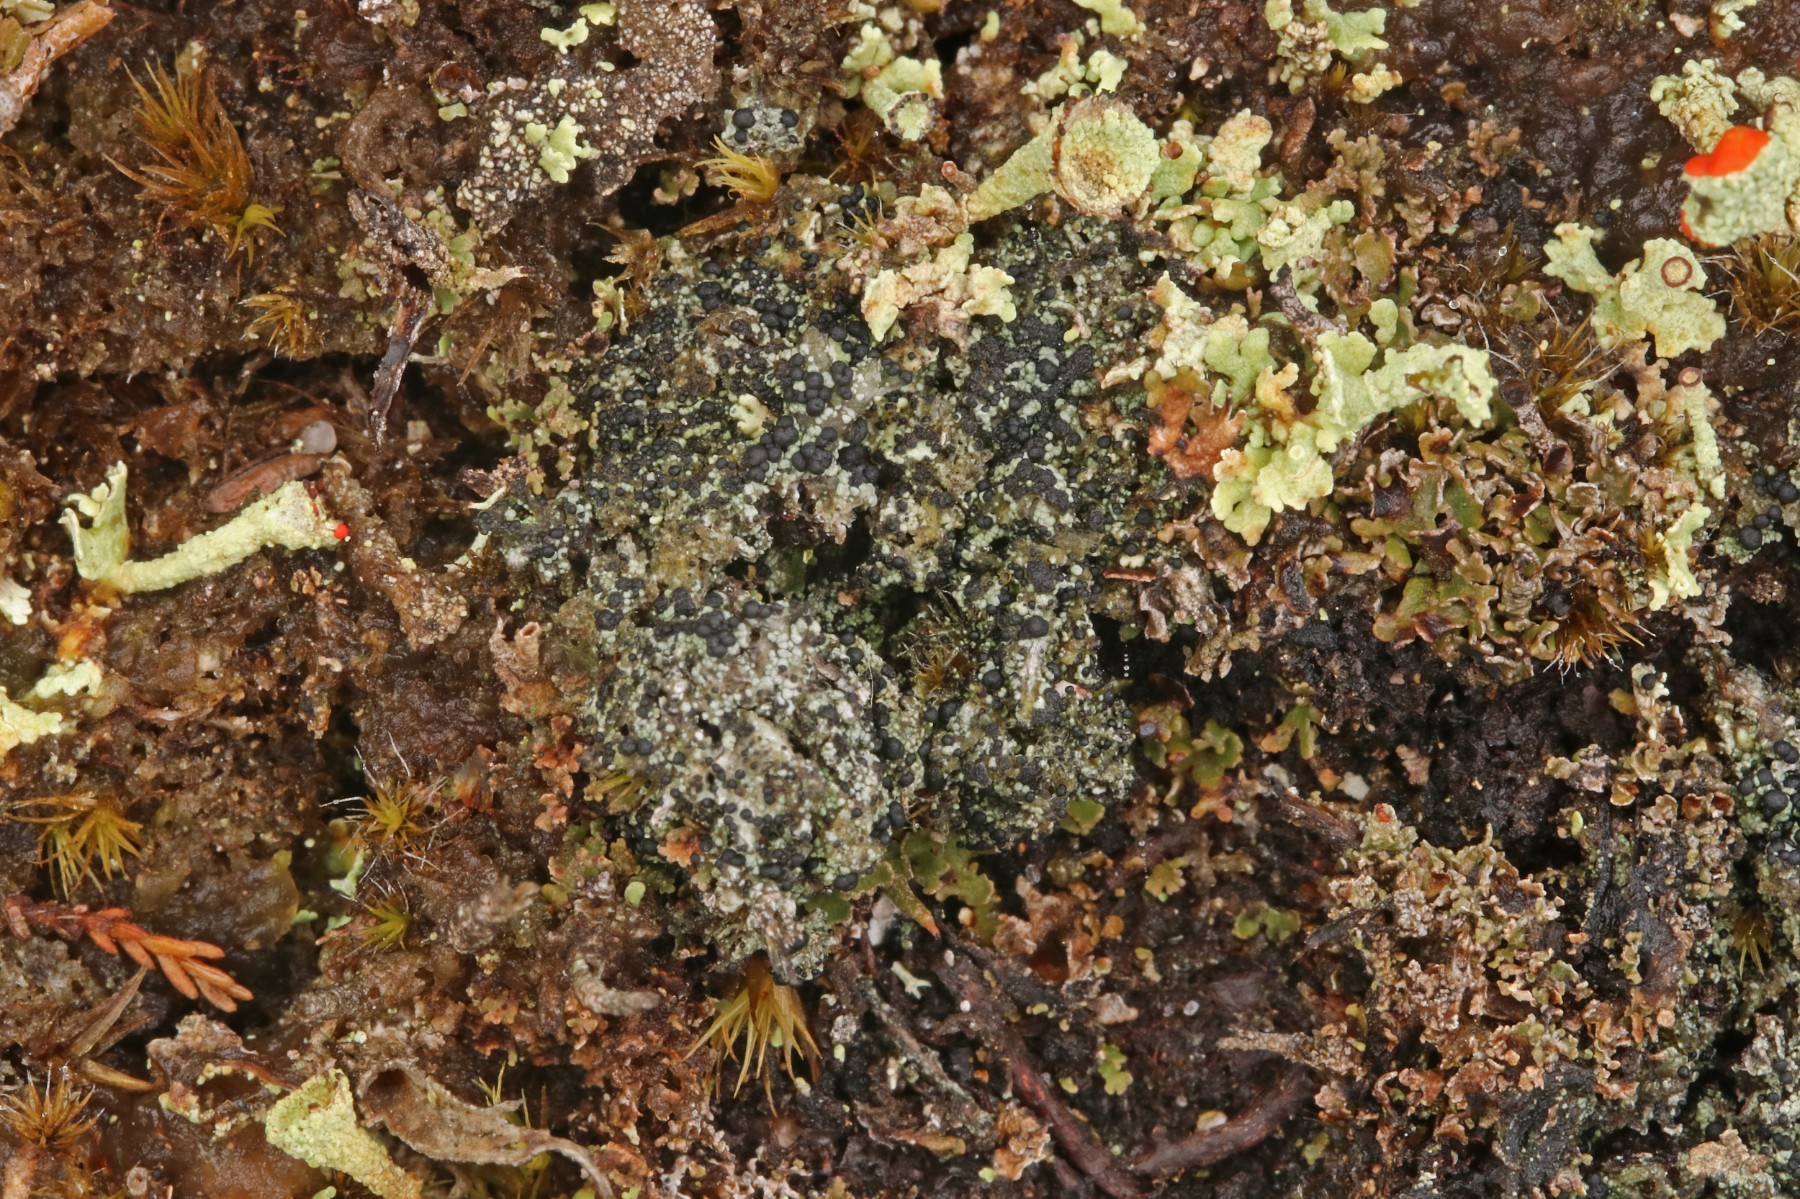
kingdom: Fungi
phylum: Ascomycota
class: Lecanoromycetes
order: Lecanorales
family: Byssolomataceae
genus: Micarea
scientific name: Micarea lignaria
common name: tørve-knaplav
